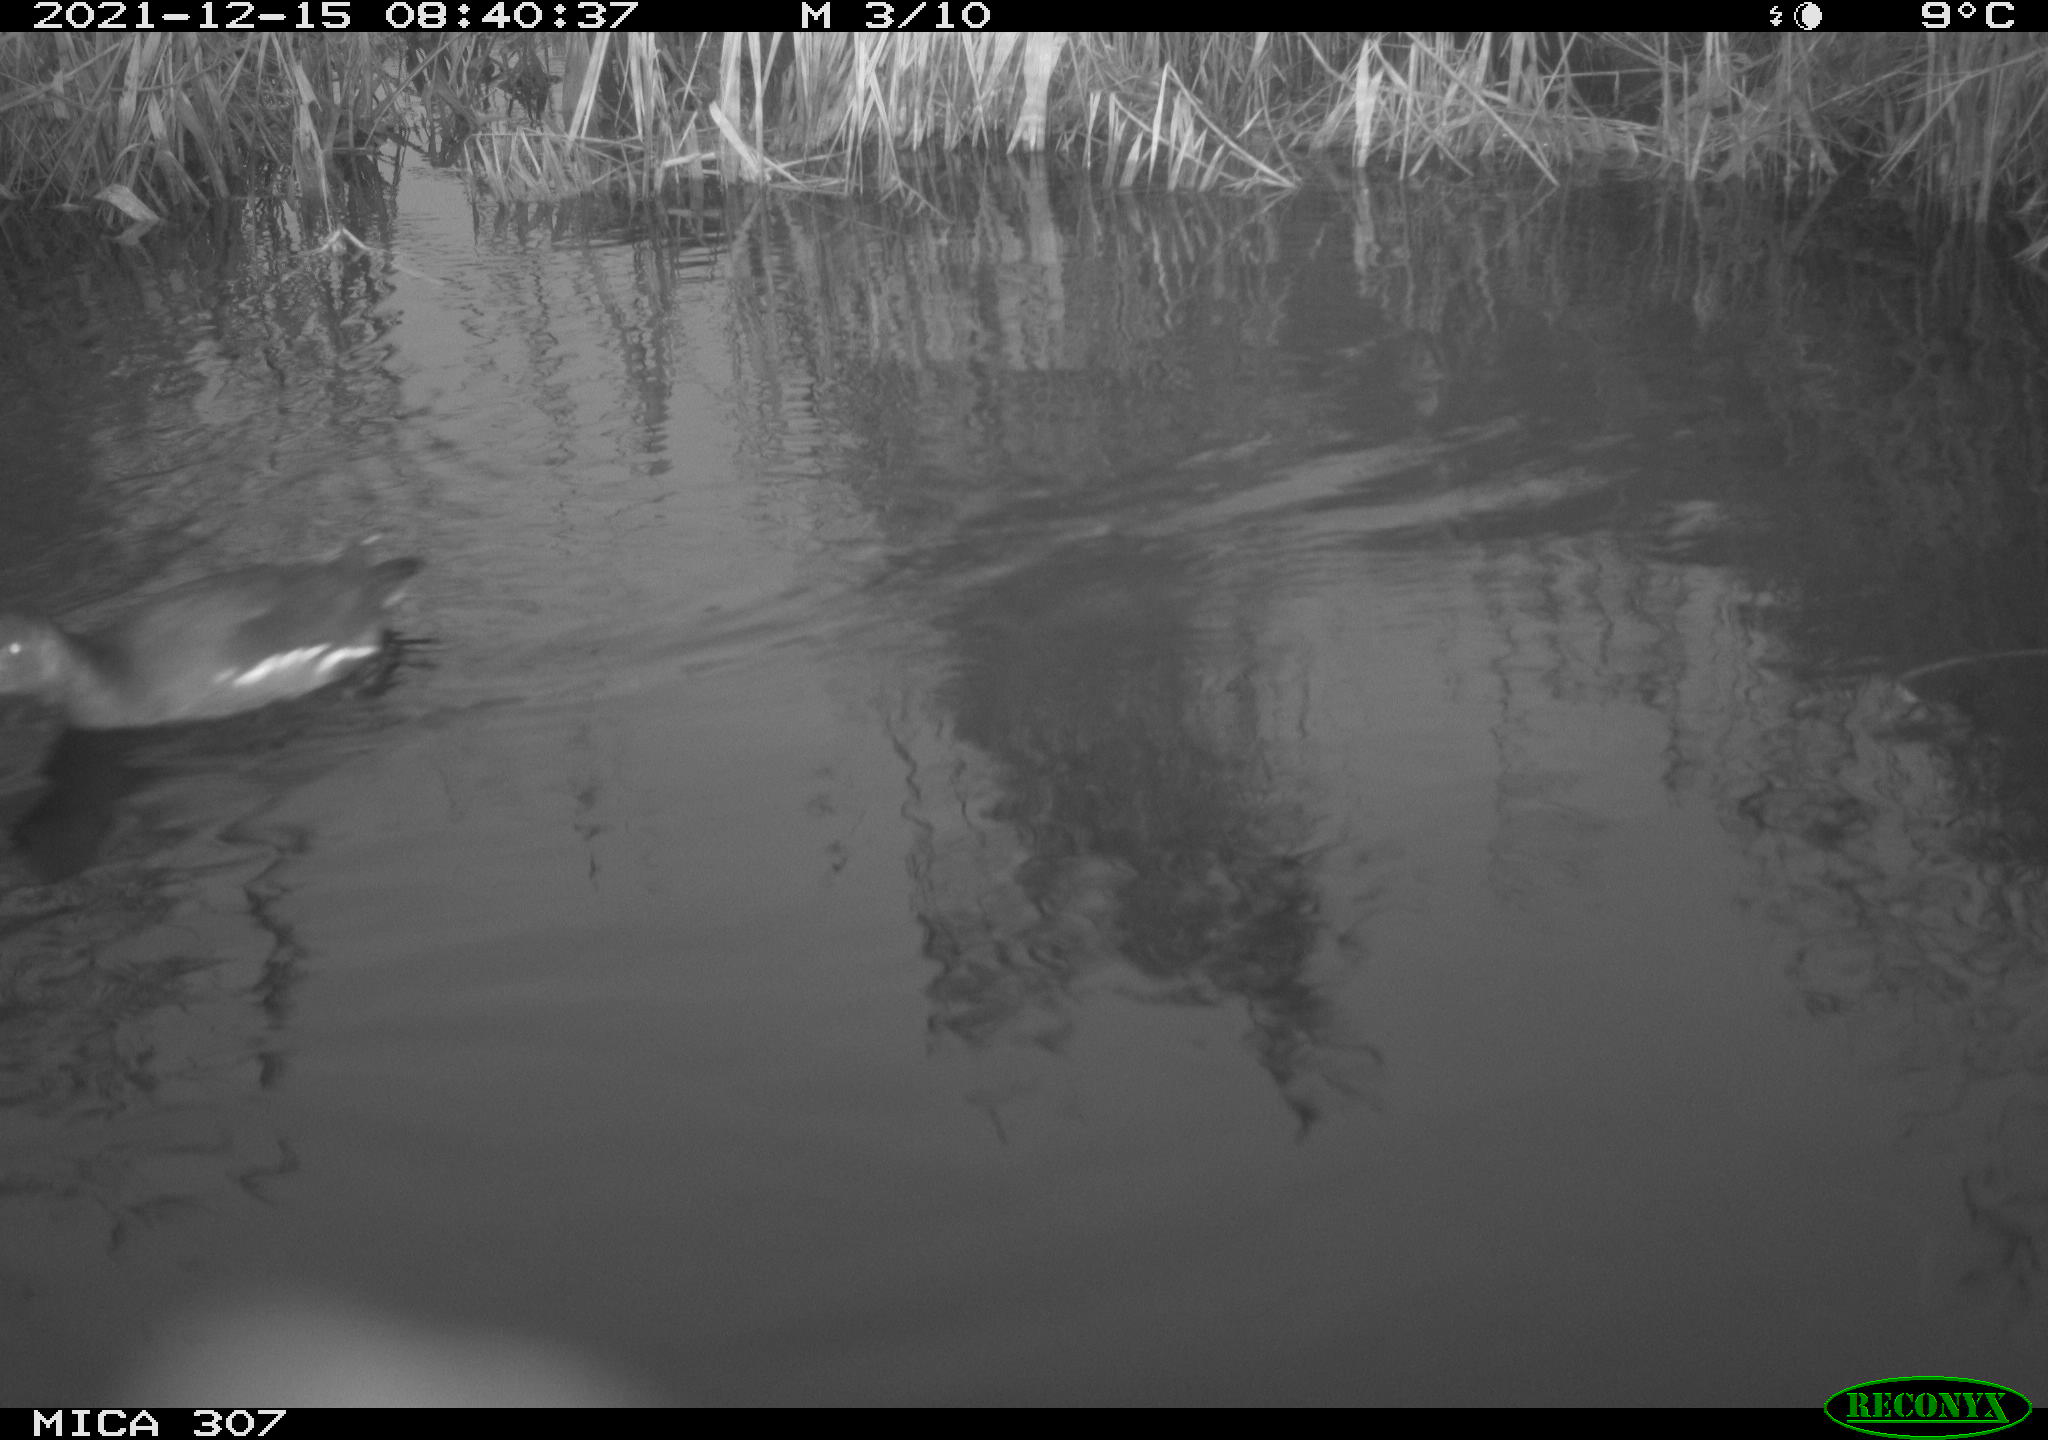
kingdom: Animalia
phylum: Chordata
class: Aves
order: Gruiformes
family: Rallidae
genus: Gallinula
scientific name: Gallinula chloropus
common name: Common moorhen
